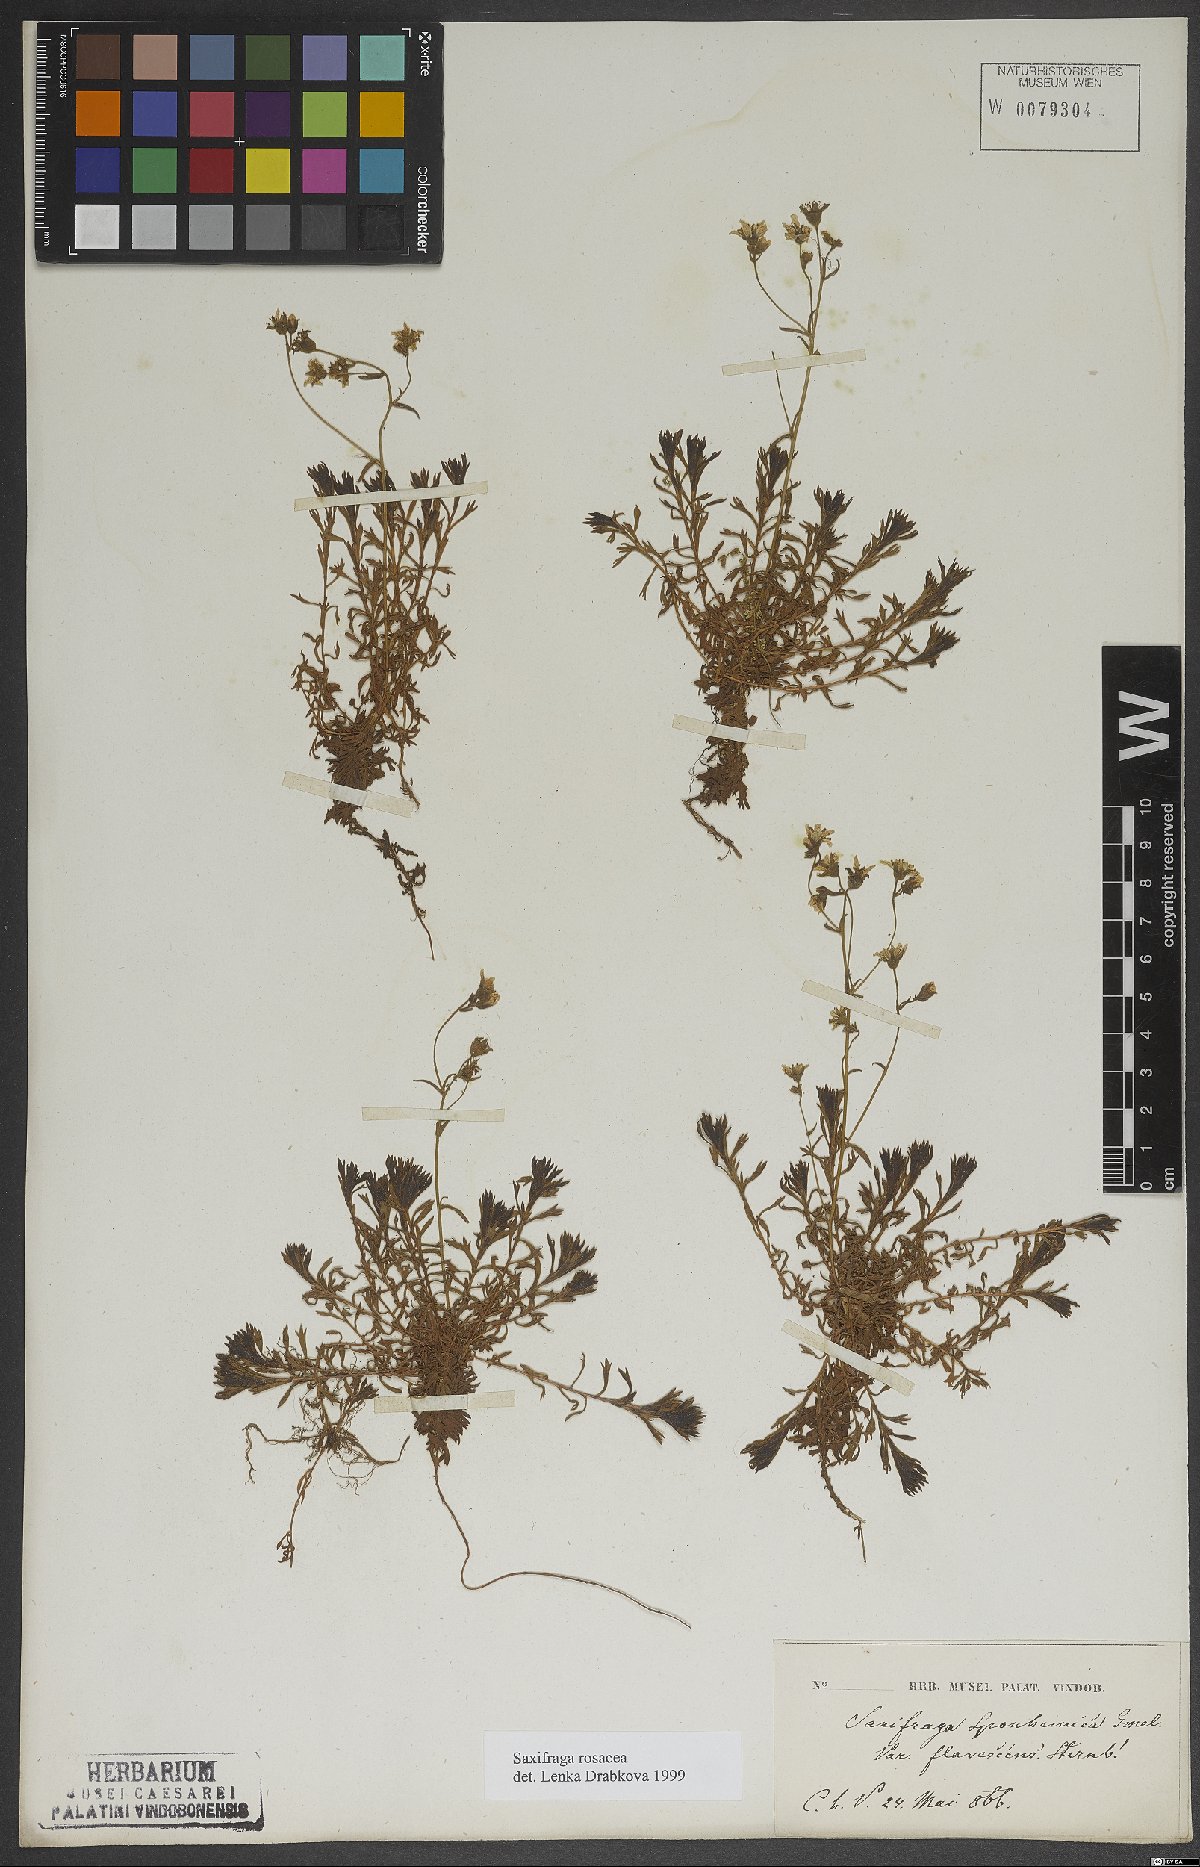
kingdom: Plantae
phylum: Tracheophyta
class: Magnoliopsida
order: Saxifragales
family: Saxifragaceae
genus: Saxifraga
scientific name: Saxifraga rosacea
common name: Irish saxifrage
